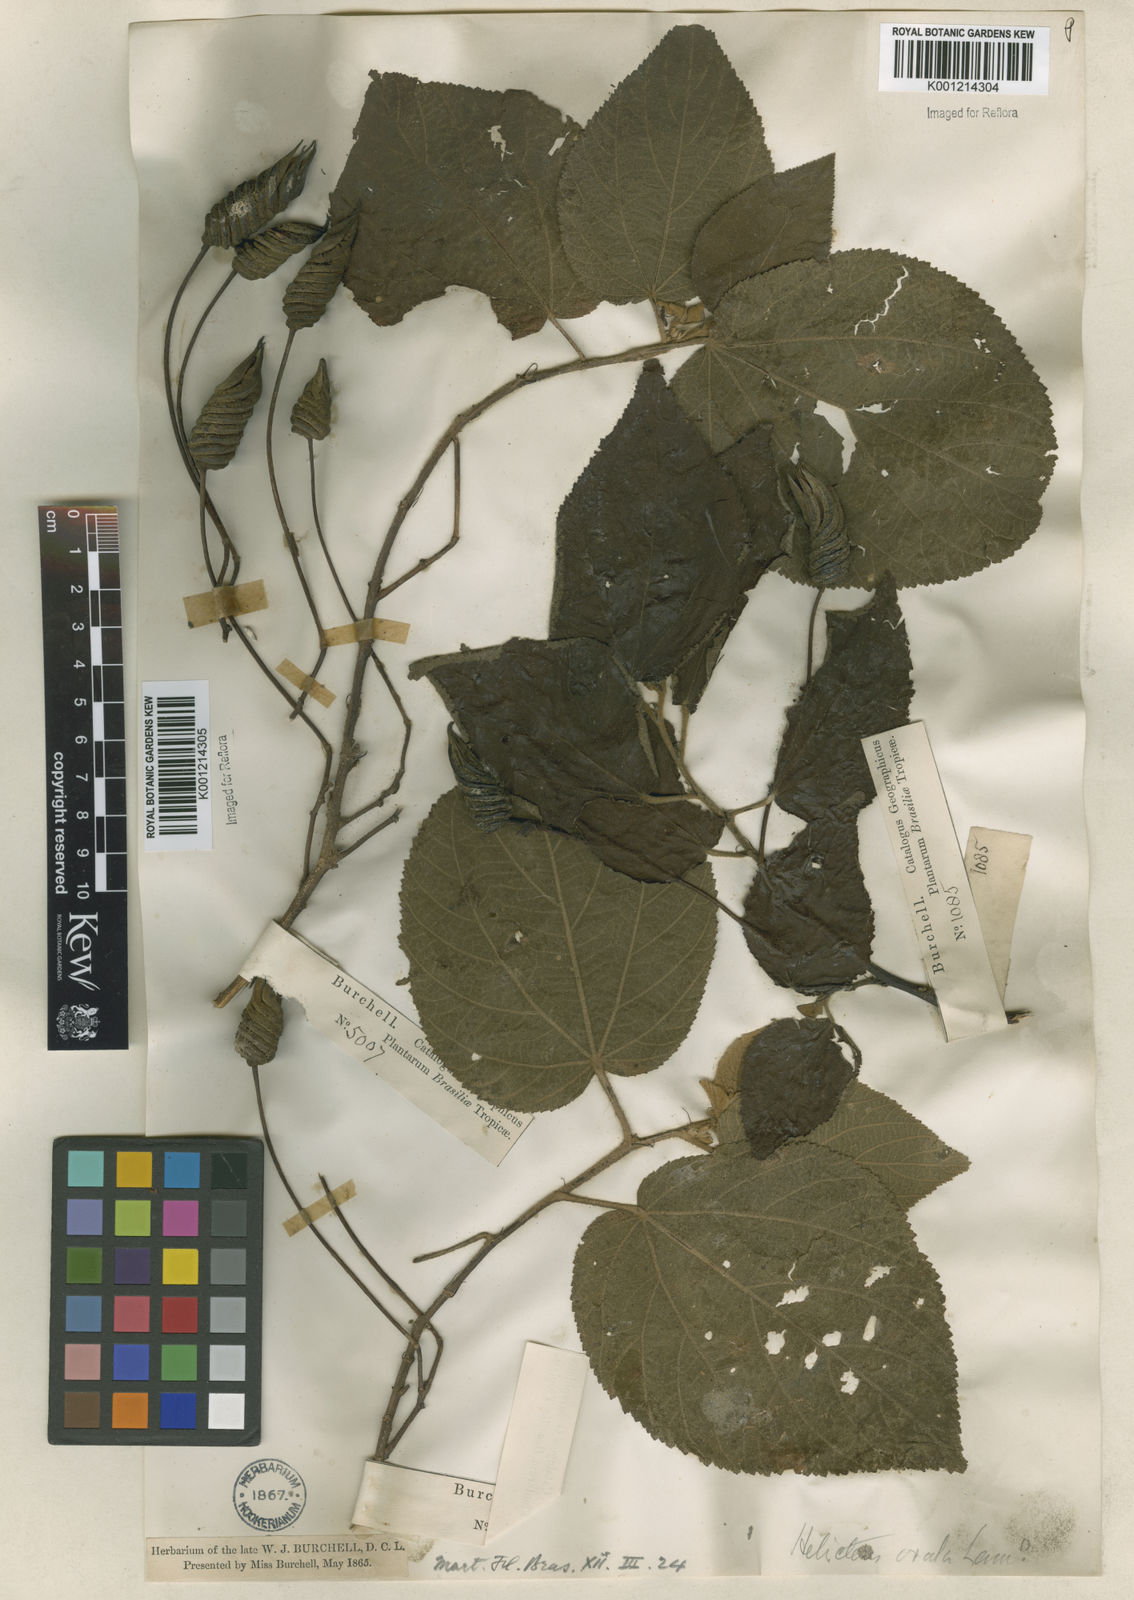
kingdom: Plantae
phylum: Tracheophyta
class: Magnoliopsida
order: Malvales
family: Malvaceae
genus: Helicteres
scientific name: Helicteres ovata
